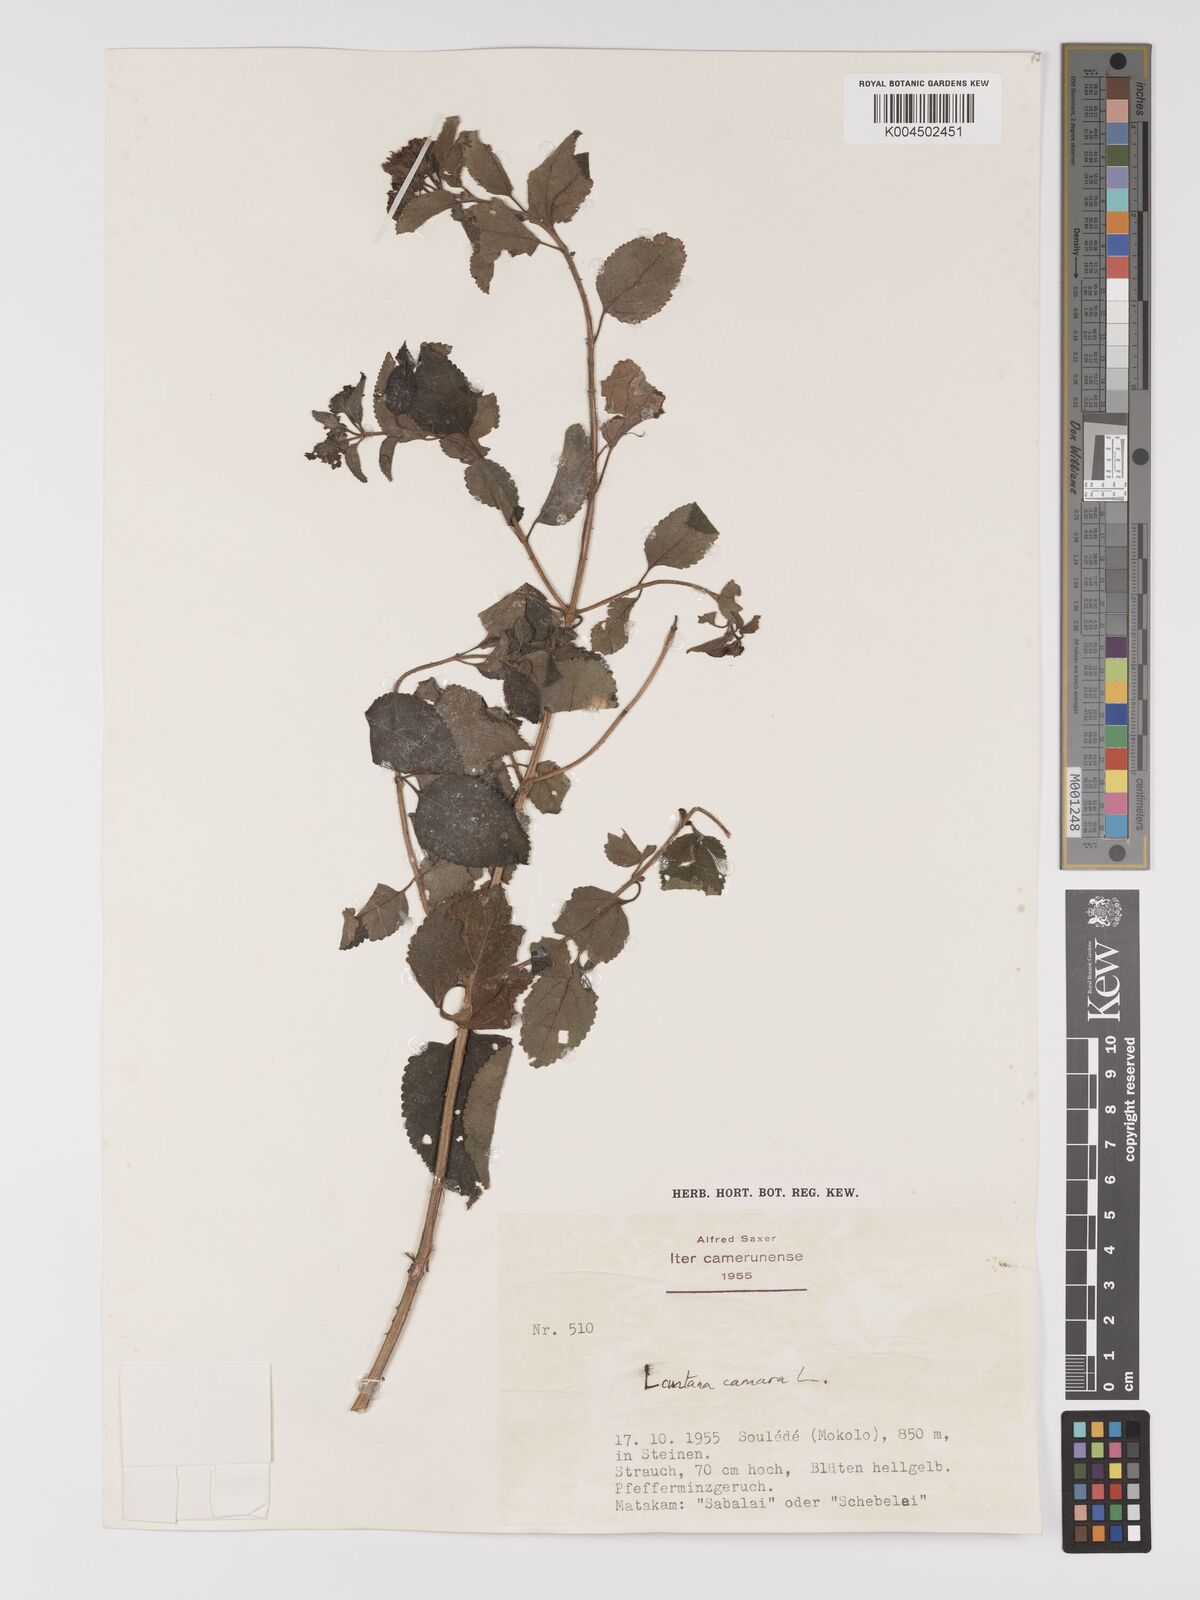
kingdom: Plantae
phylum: Tracheophyta
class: Magnoliopsida
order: Lamiales
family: Verbenaceae
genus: Lantana
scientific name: Lantana camara
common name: Lantana
